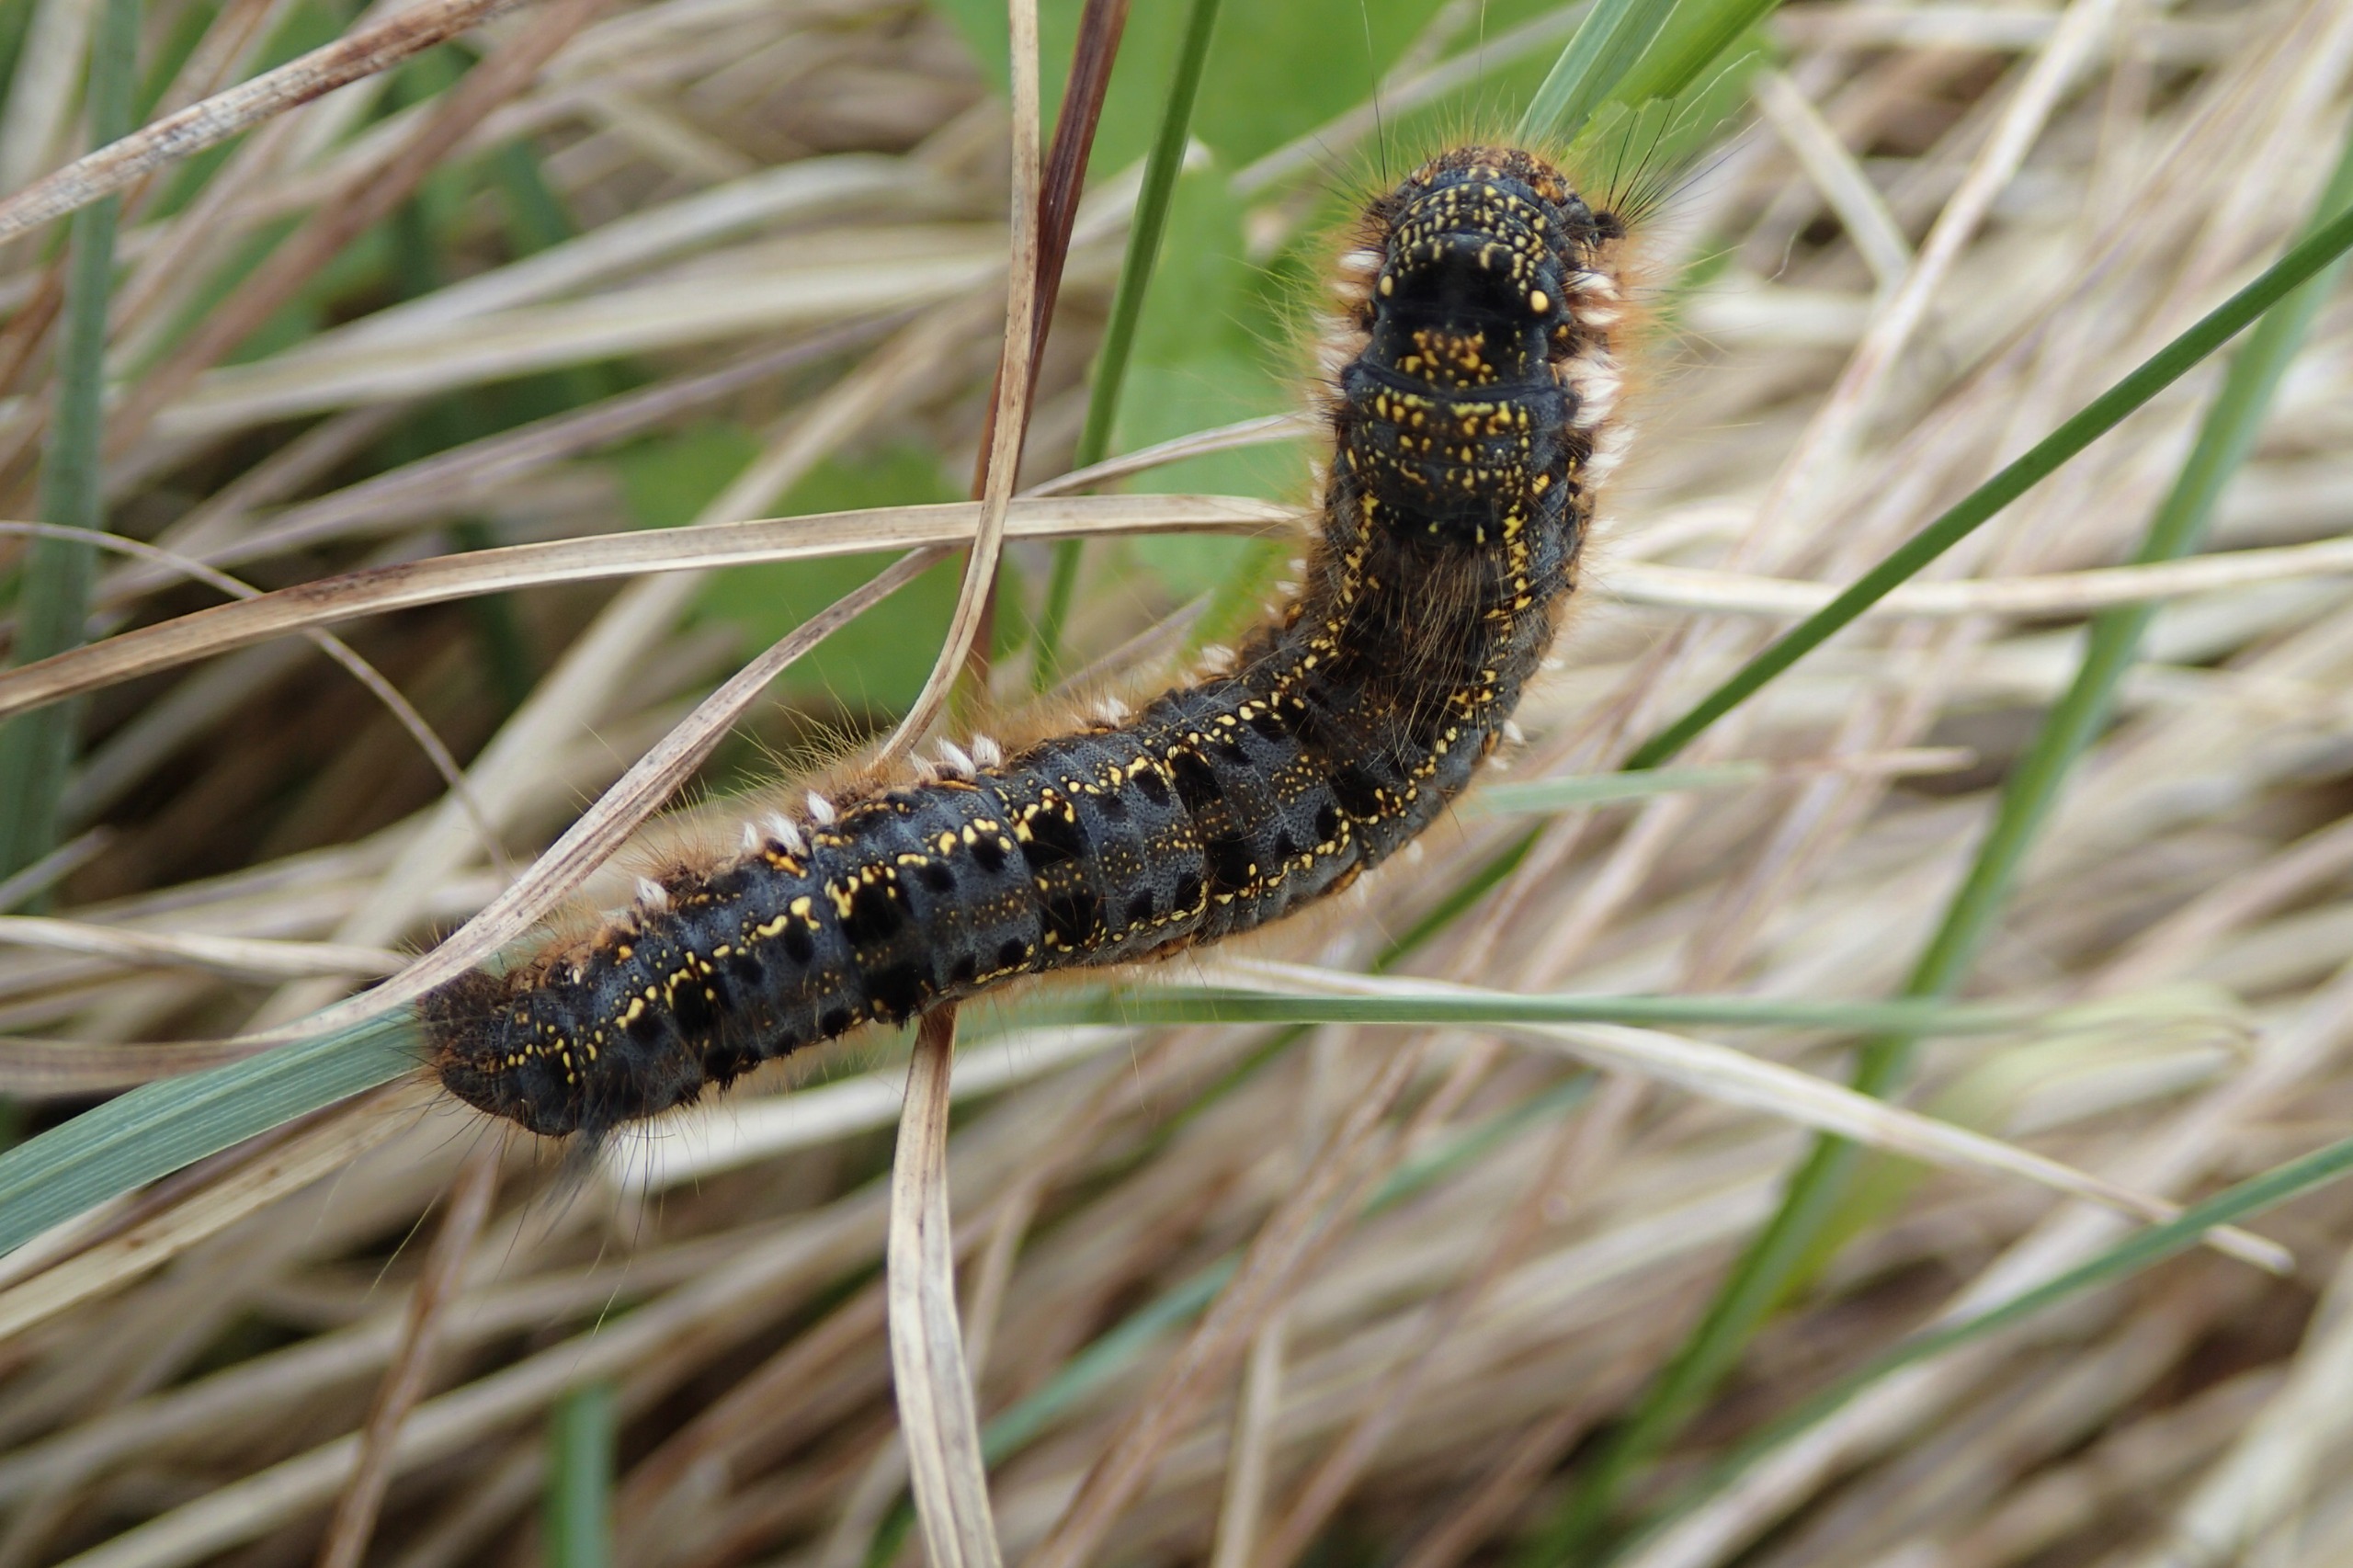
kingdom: Animalia
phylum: Arthropoda
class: Insecta
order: Lepidoptera
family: Lasiocampidae
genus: Euthrix
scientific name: Euthrix potatoria
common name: Græsspinder
